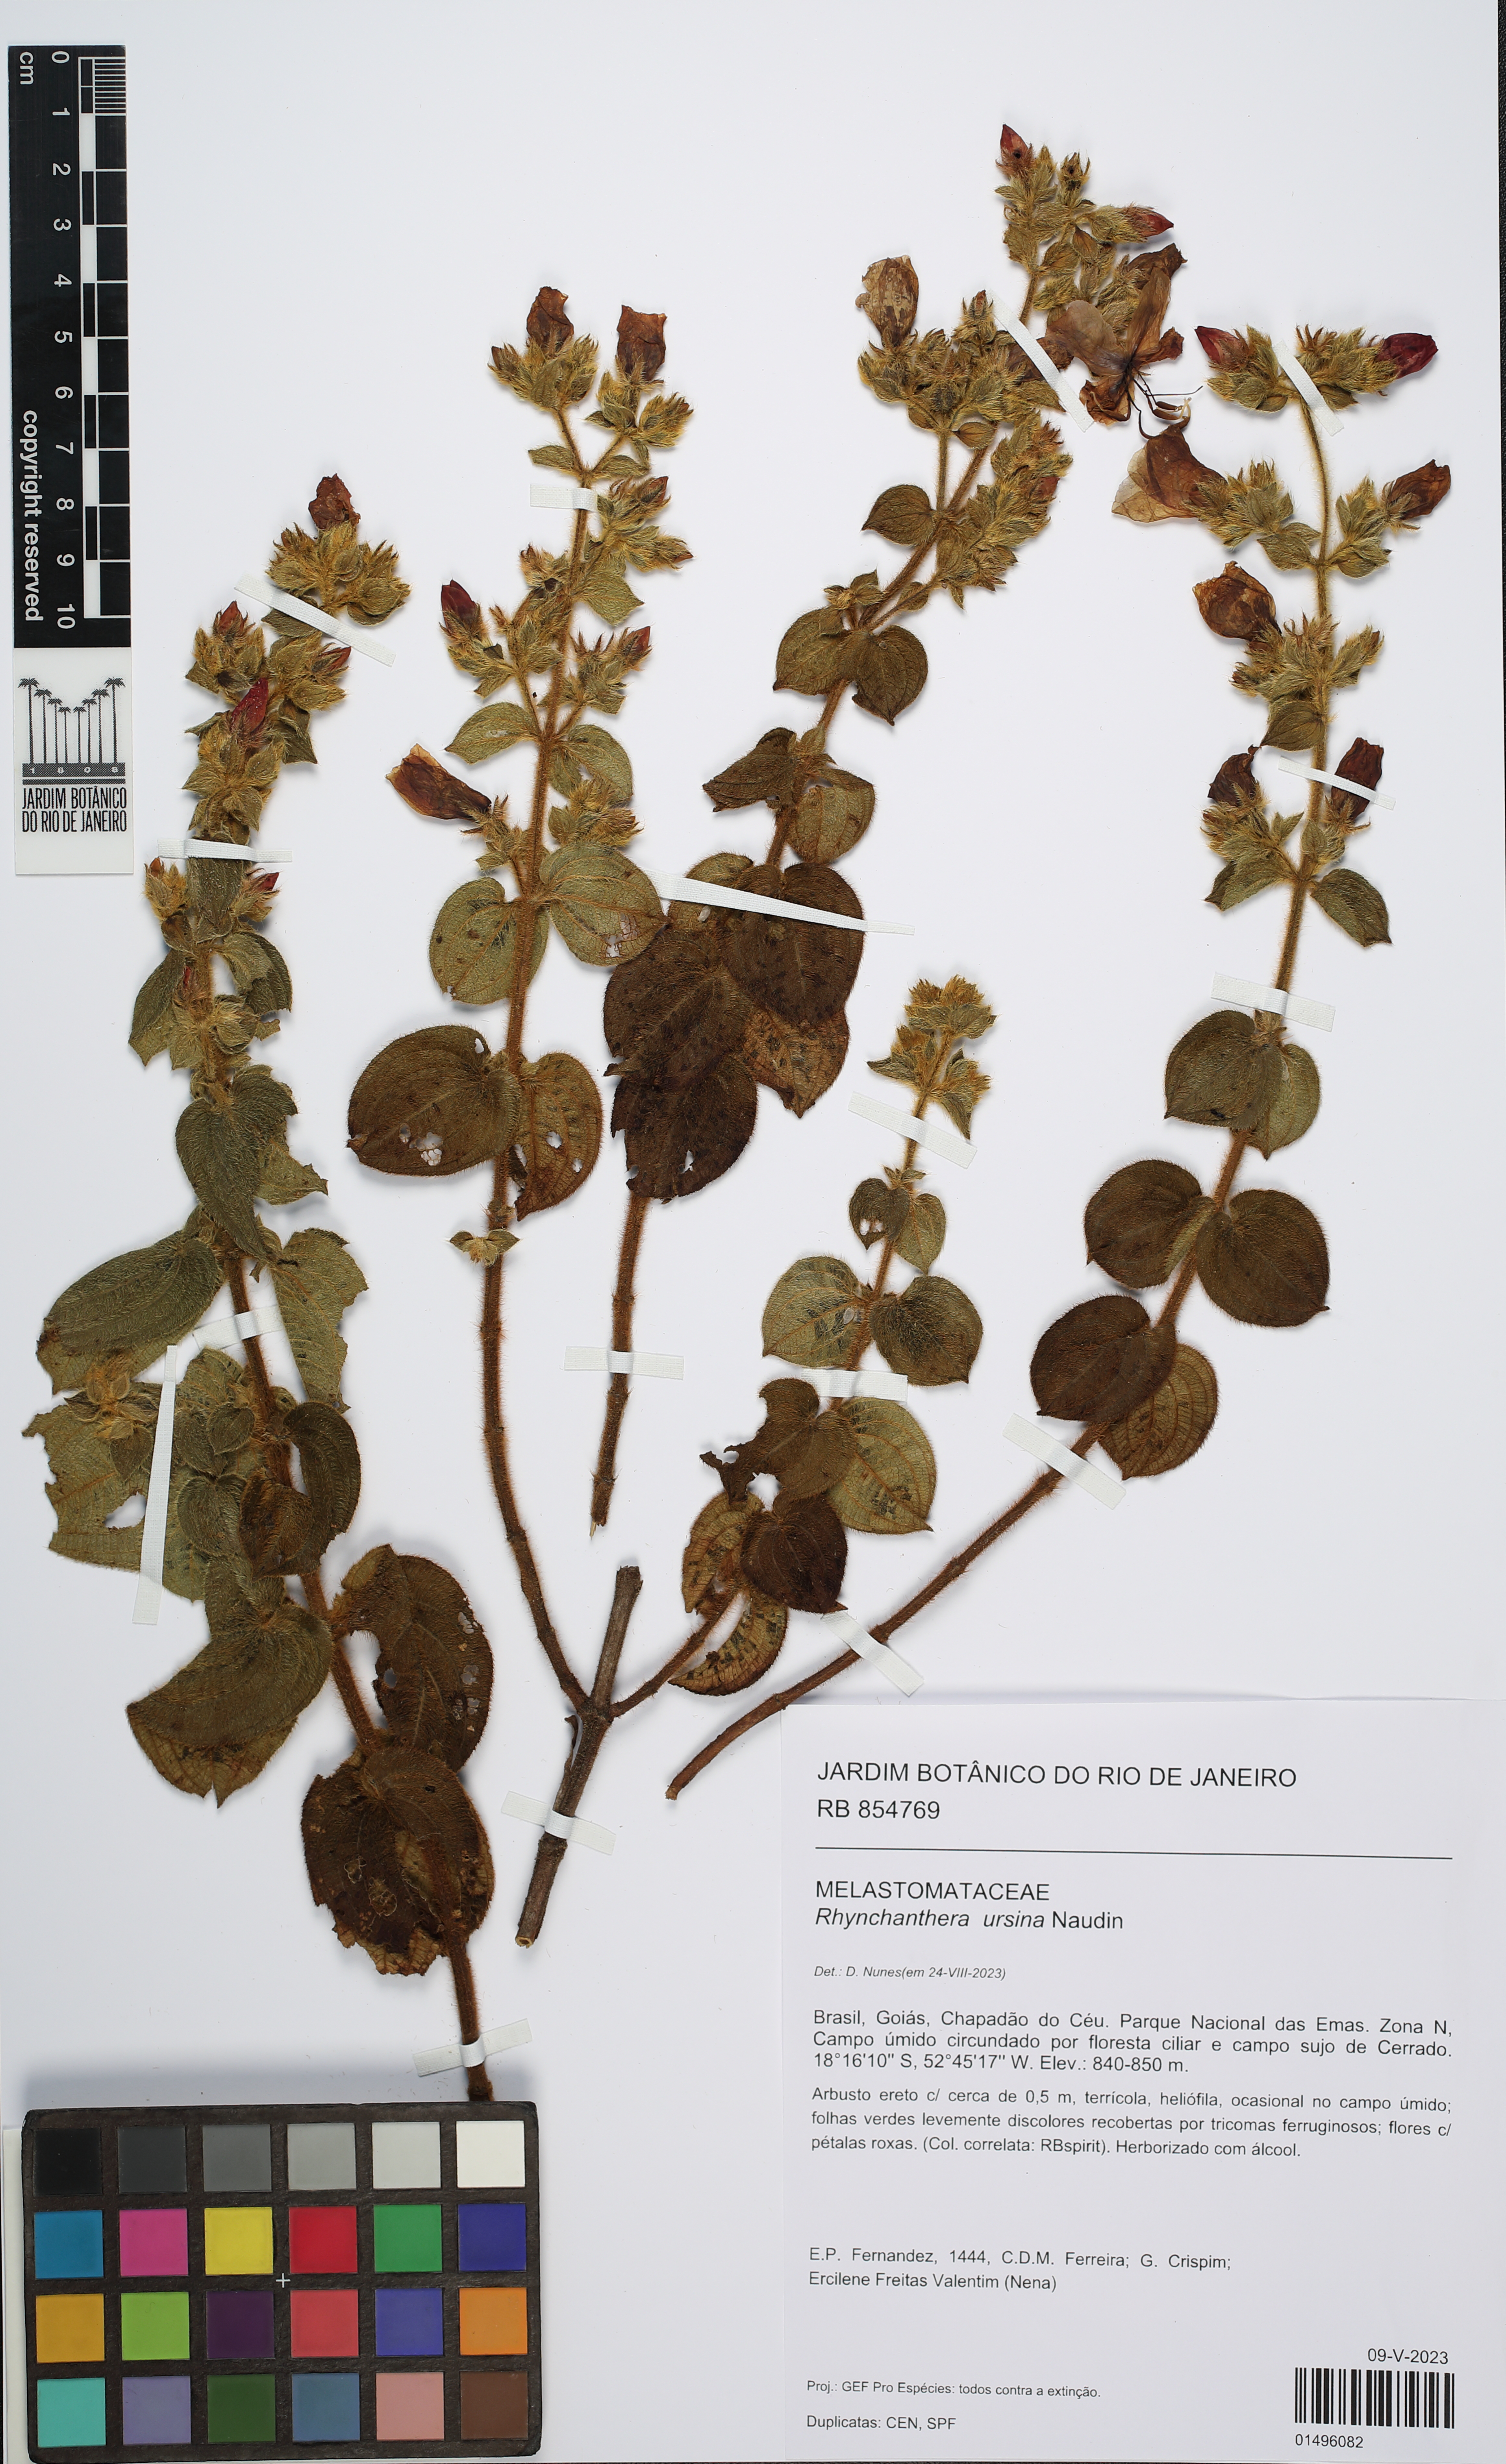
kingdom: Plantae
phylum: Tracheophyta
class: Magnoliopsida
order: Myrtales
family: Melastomataceae
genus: Rhynchanthera
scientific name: Rhynchanthera ursina
